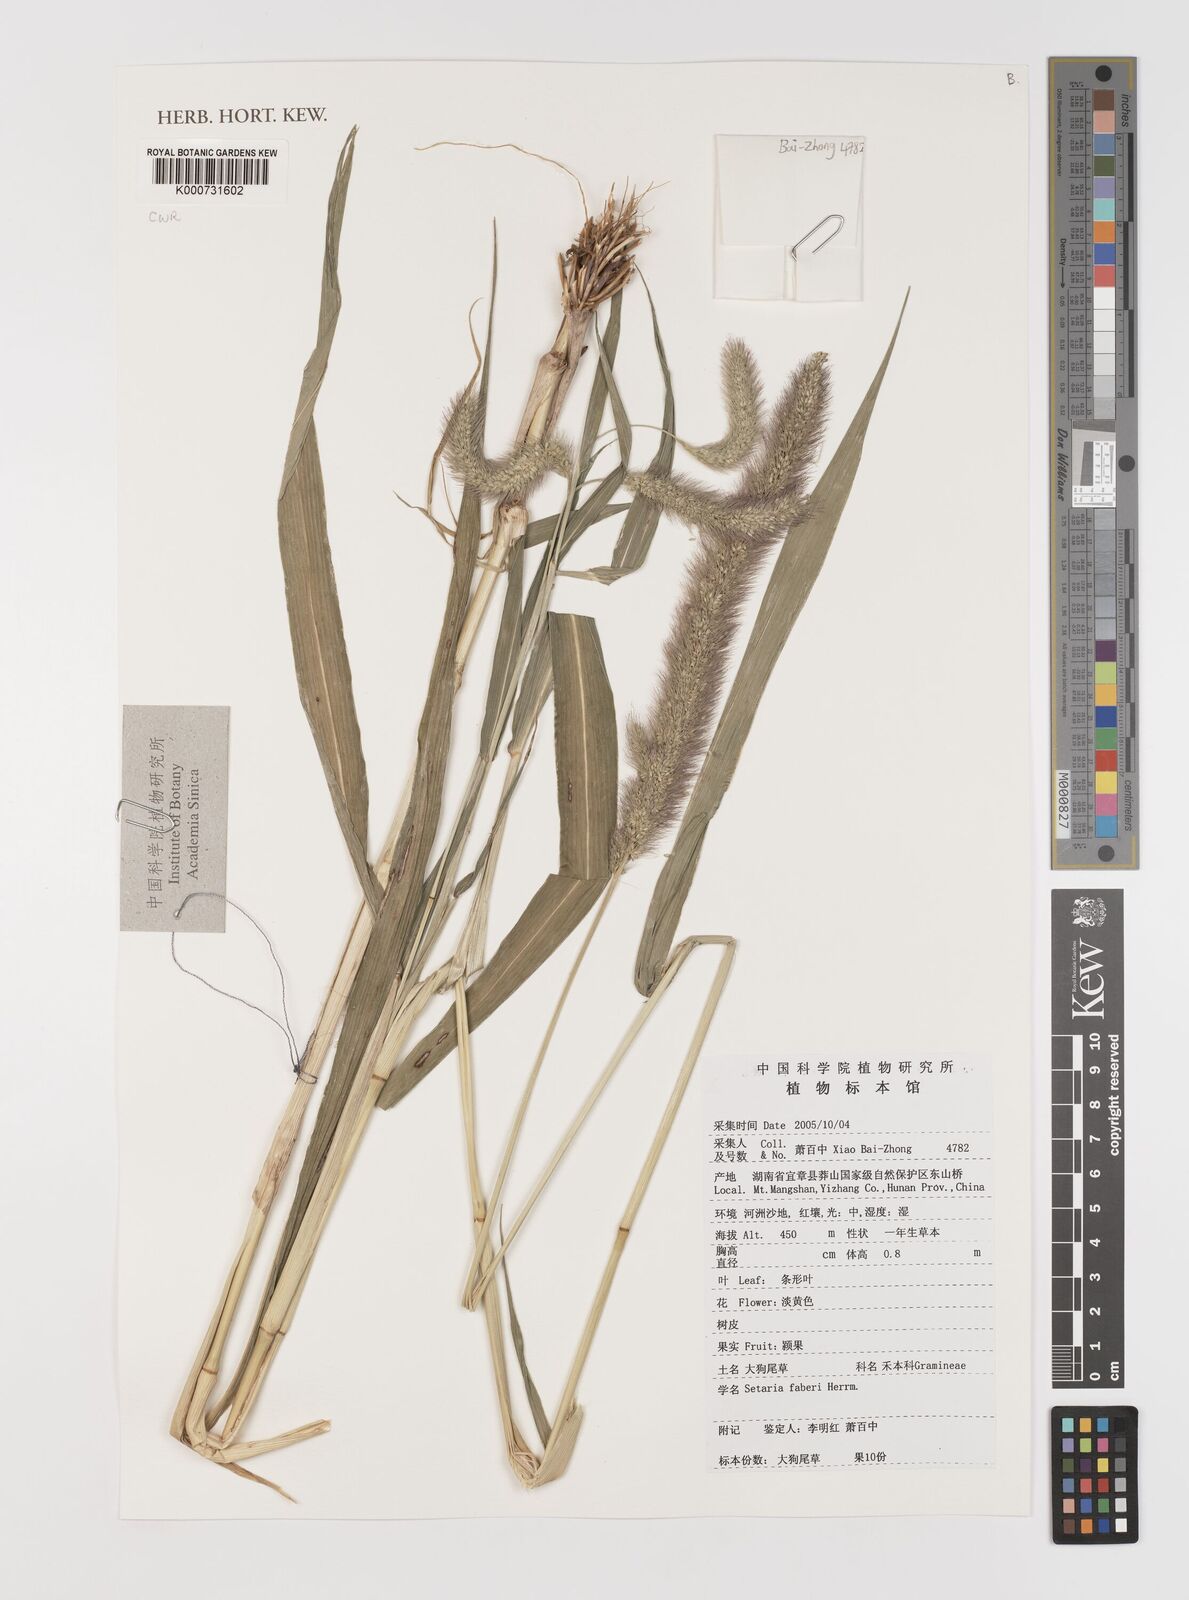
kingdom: Plantae
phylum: Tracheophyta
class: Liliopsida
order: Poales
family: Poaceae
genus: Setaria
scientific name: Setaria faberi
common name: Nodding bristle-grass
